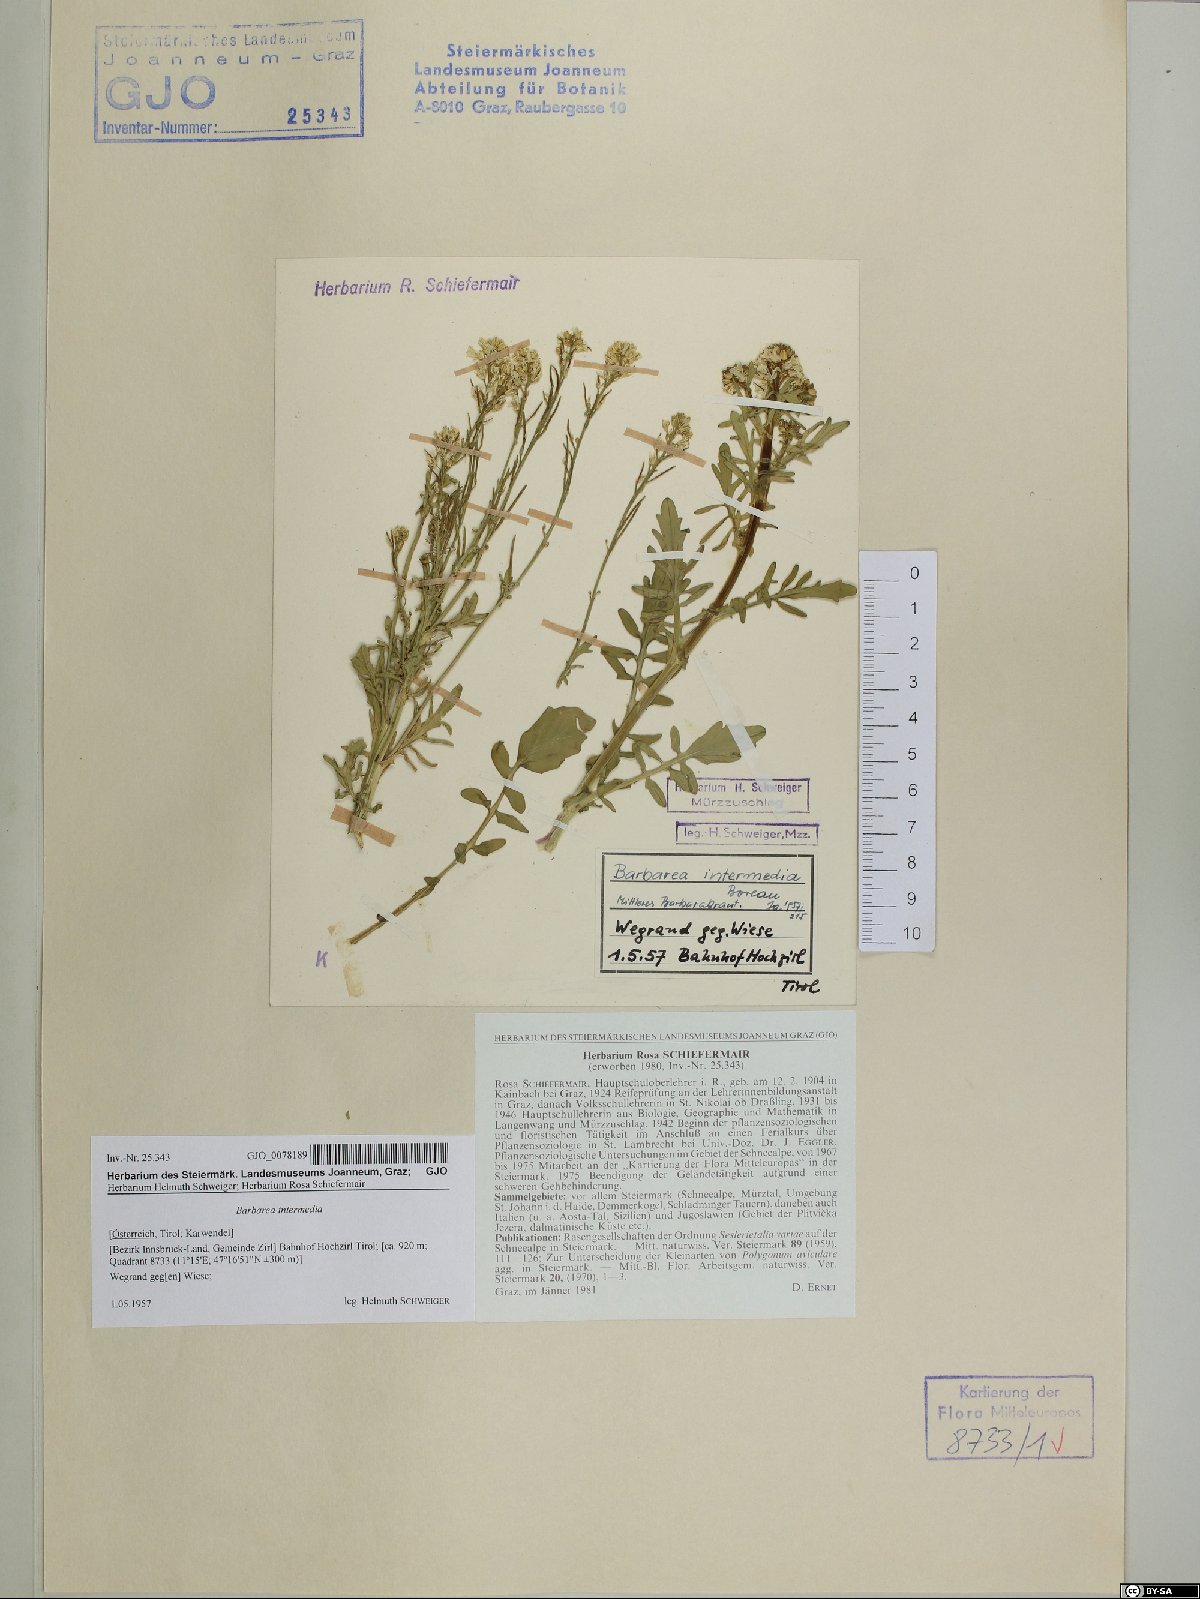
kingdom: Plantae
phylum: Tracheophyta
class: Magnoliopsida
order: Brassicales
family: Brassicaceae
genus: Barbarea
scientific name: Barbarea intermedia
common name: Medium-flowered winter-cress
